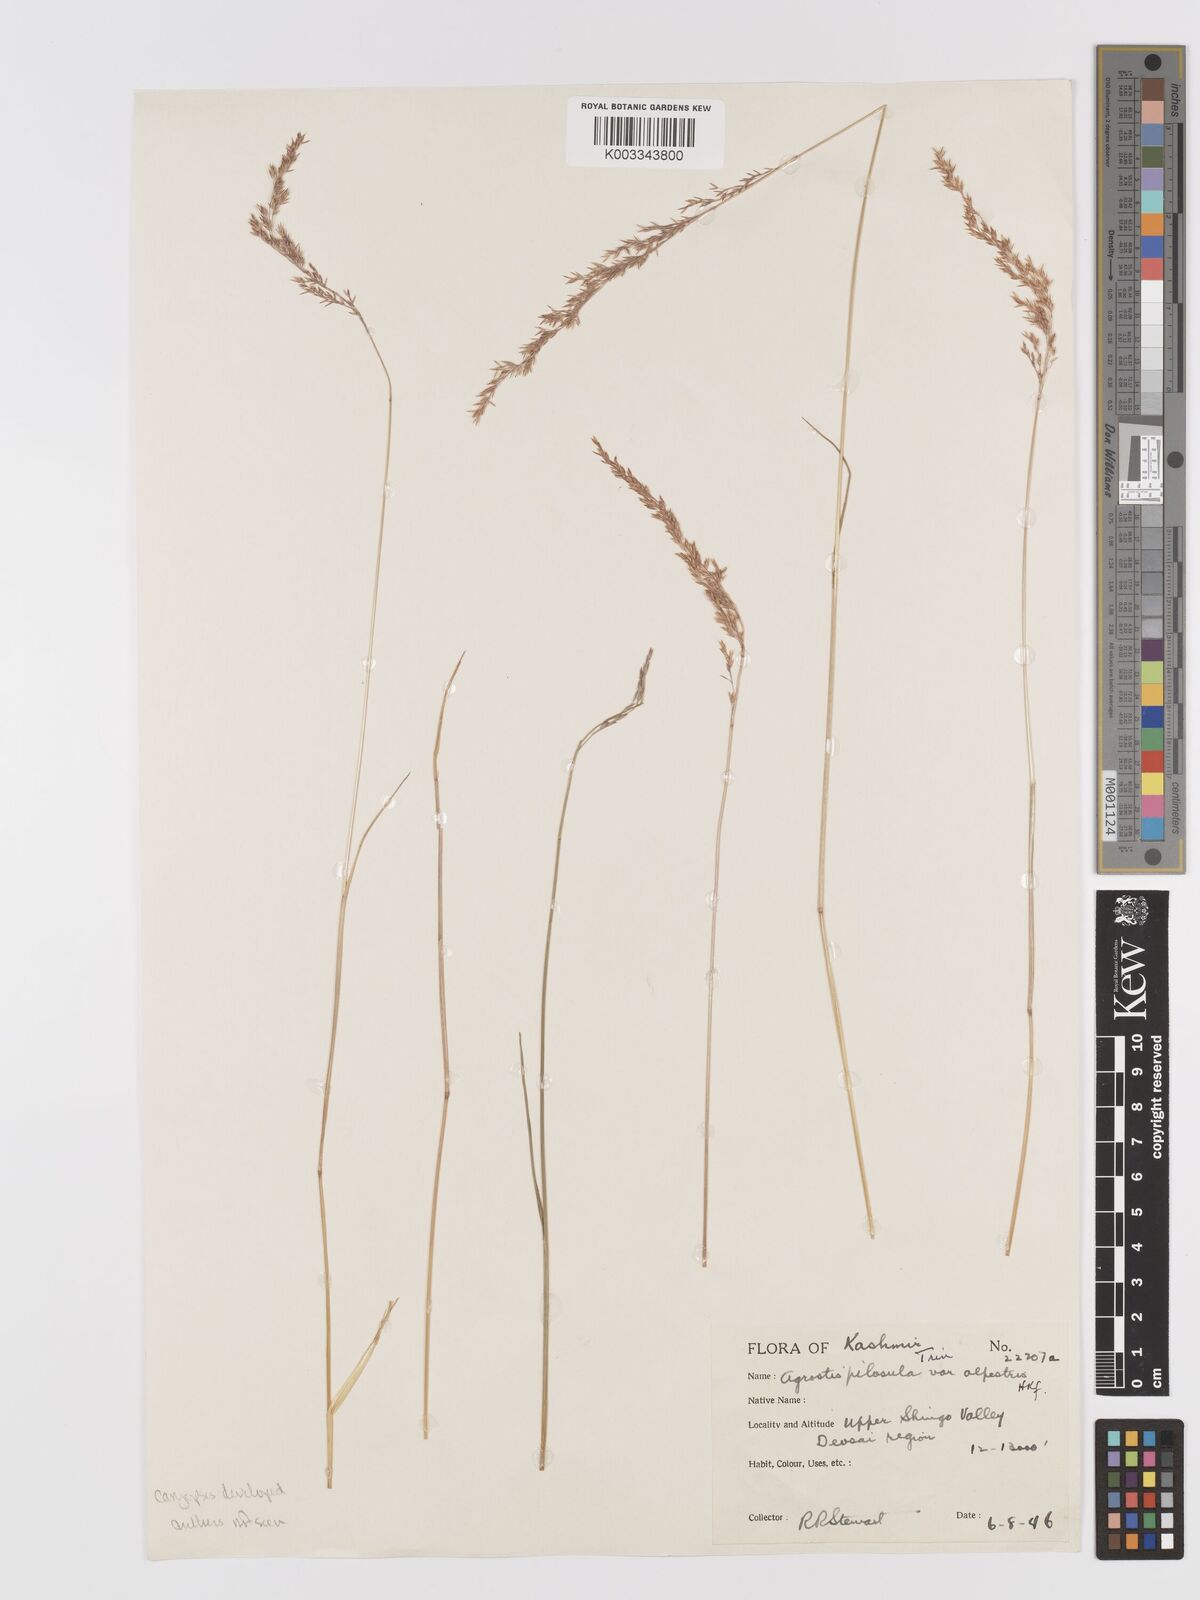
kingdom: Plantae
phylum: Tracheophyta
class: Liliopsida
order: Poales
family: Poaceae
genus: Agrostis
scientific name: Agrostis pilosula
